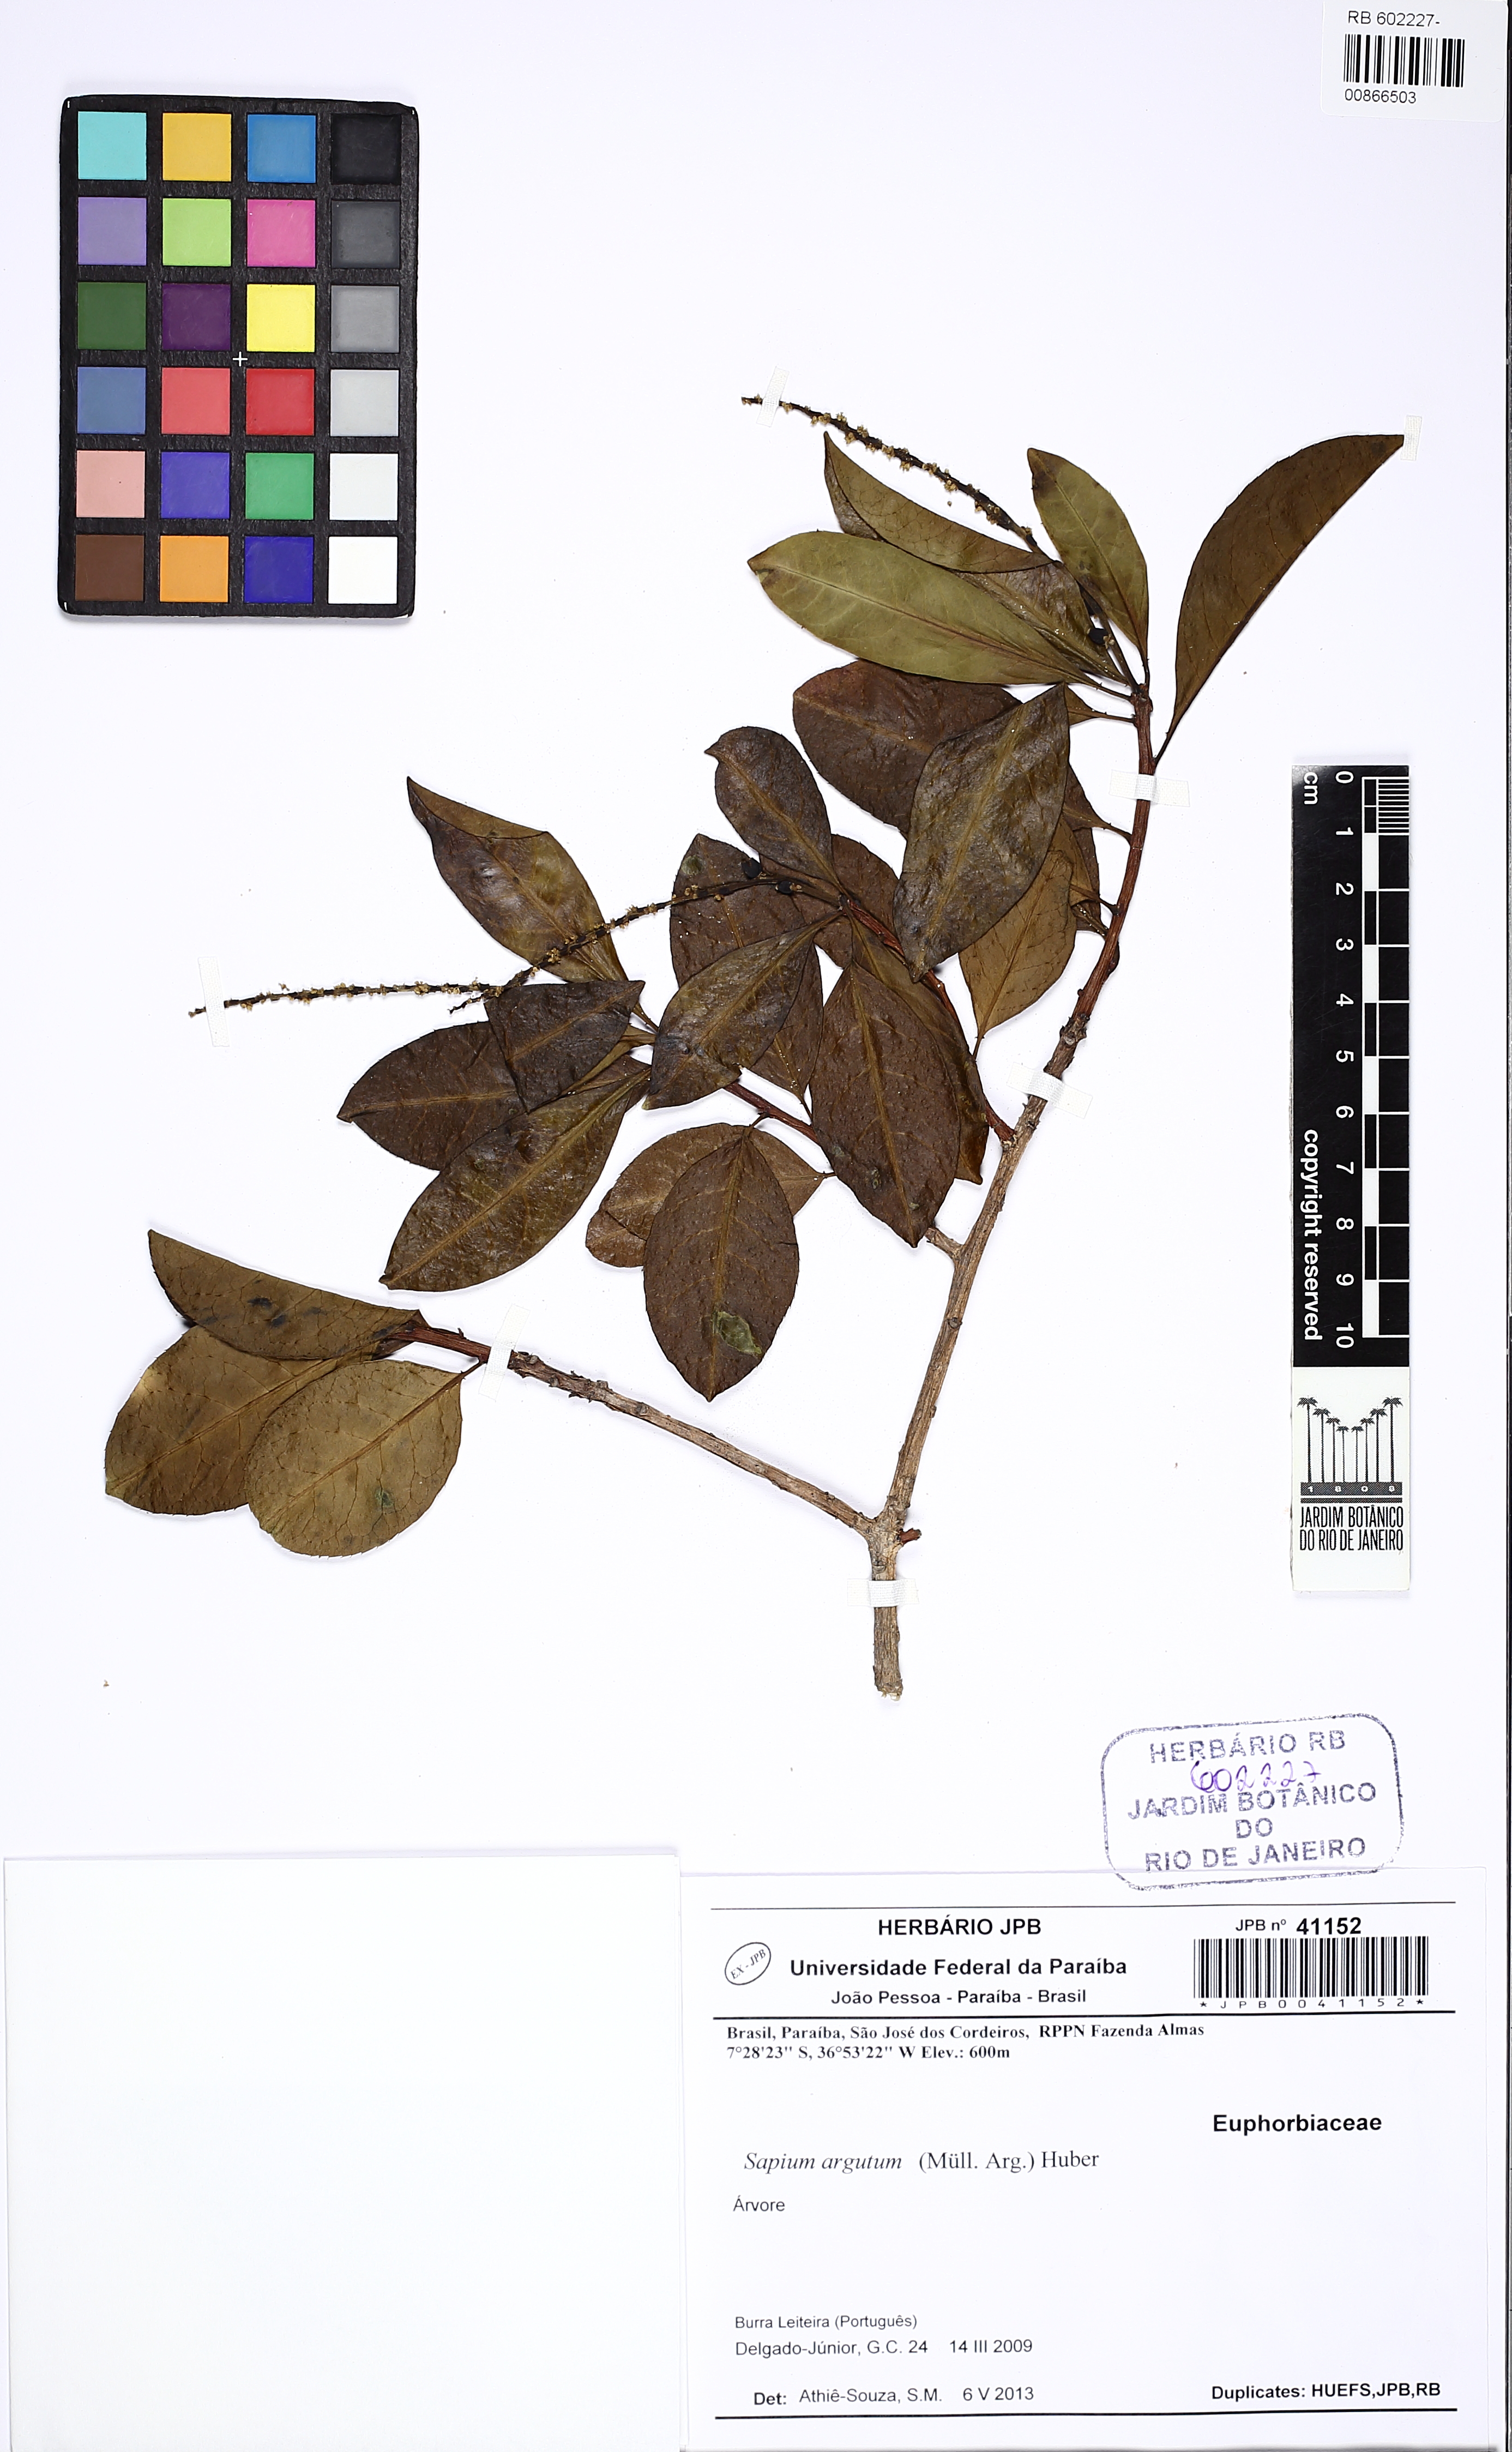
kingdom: Plantae
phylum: Tracheophyta
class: Magnoliopsida
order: Malpighiales
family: Euphorbiaceae
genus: Sapium
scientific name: Sapium argutum
